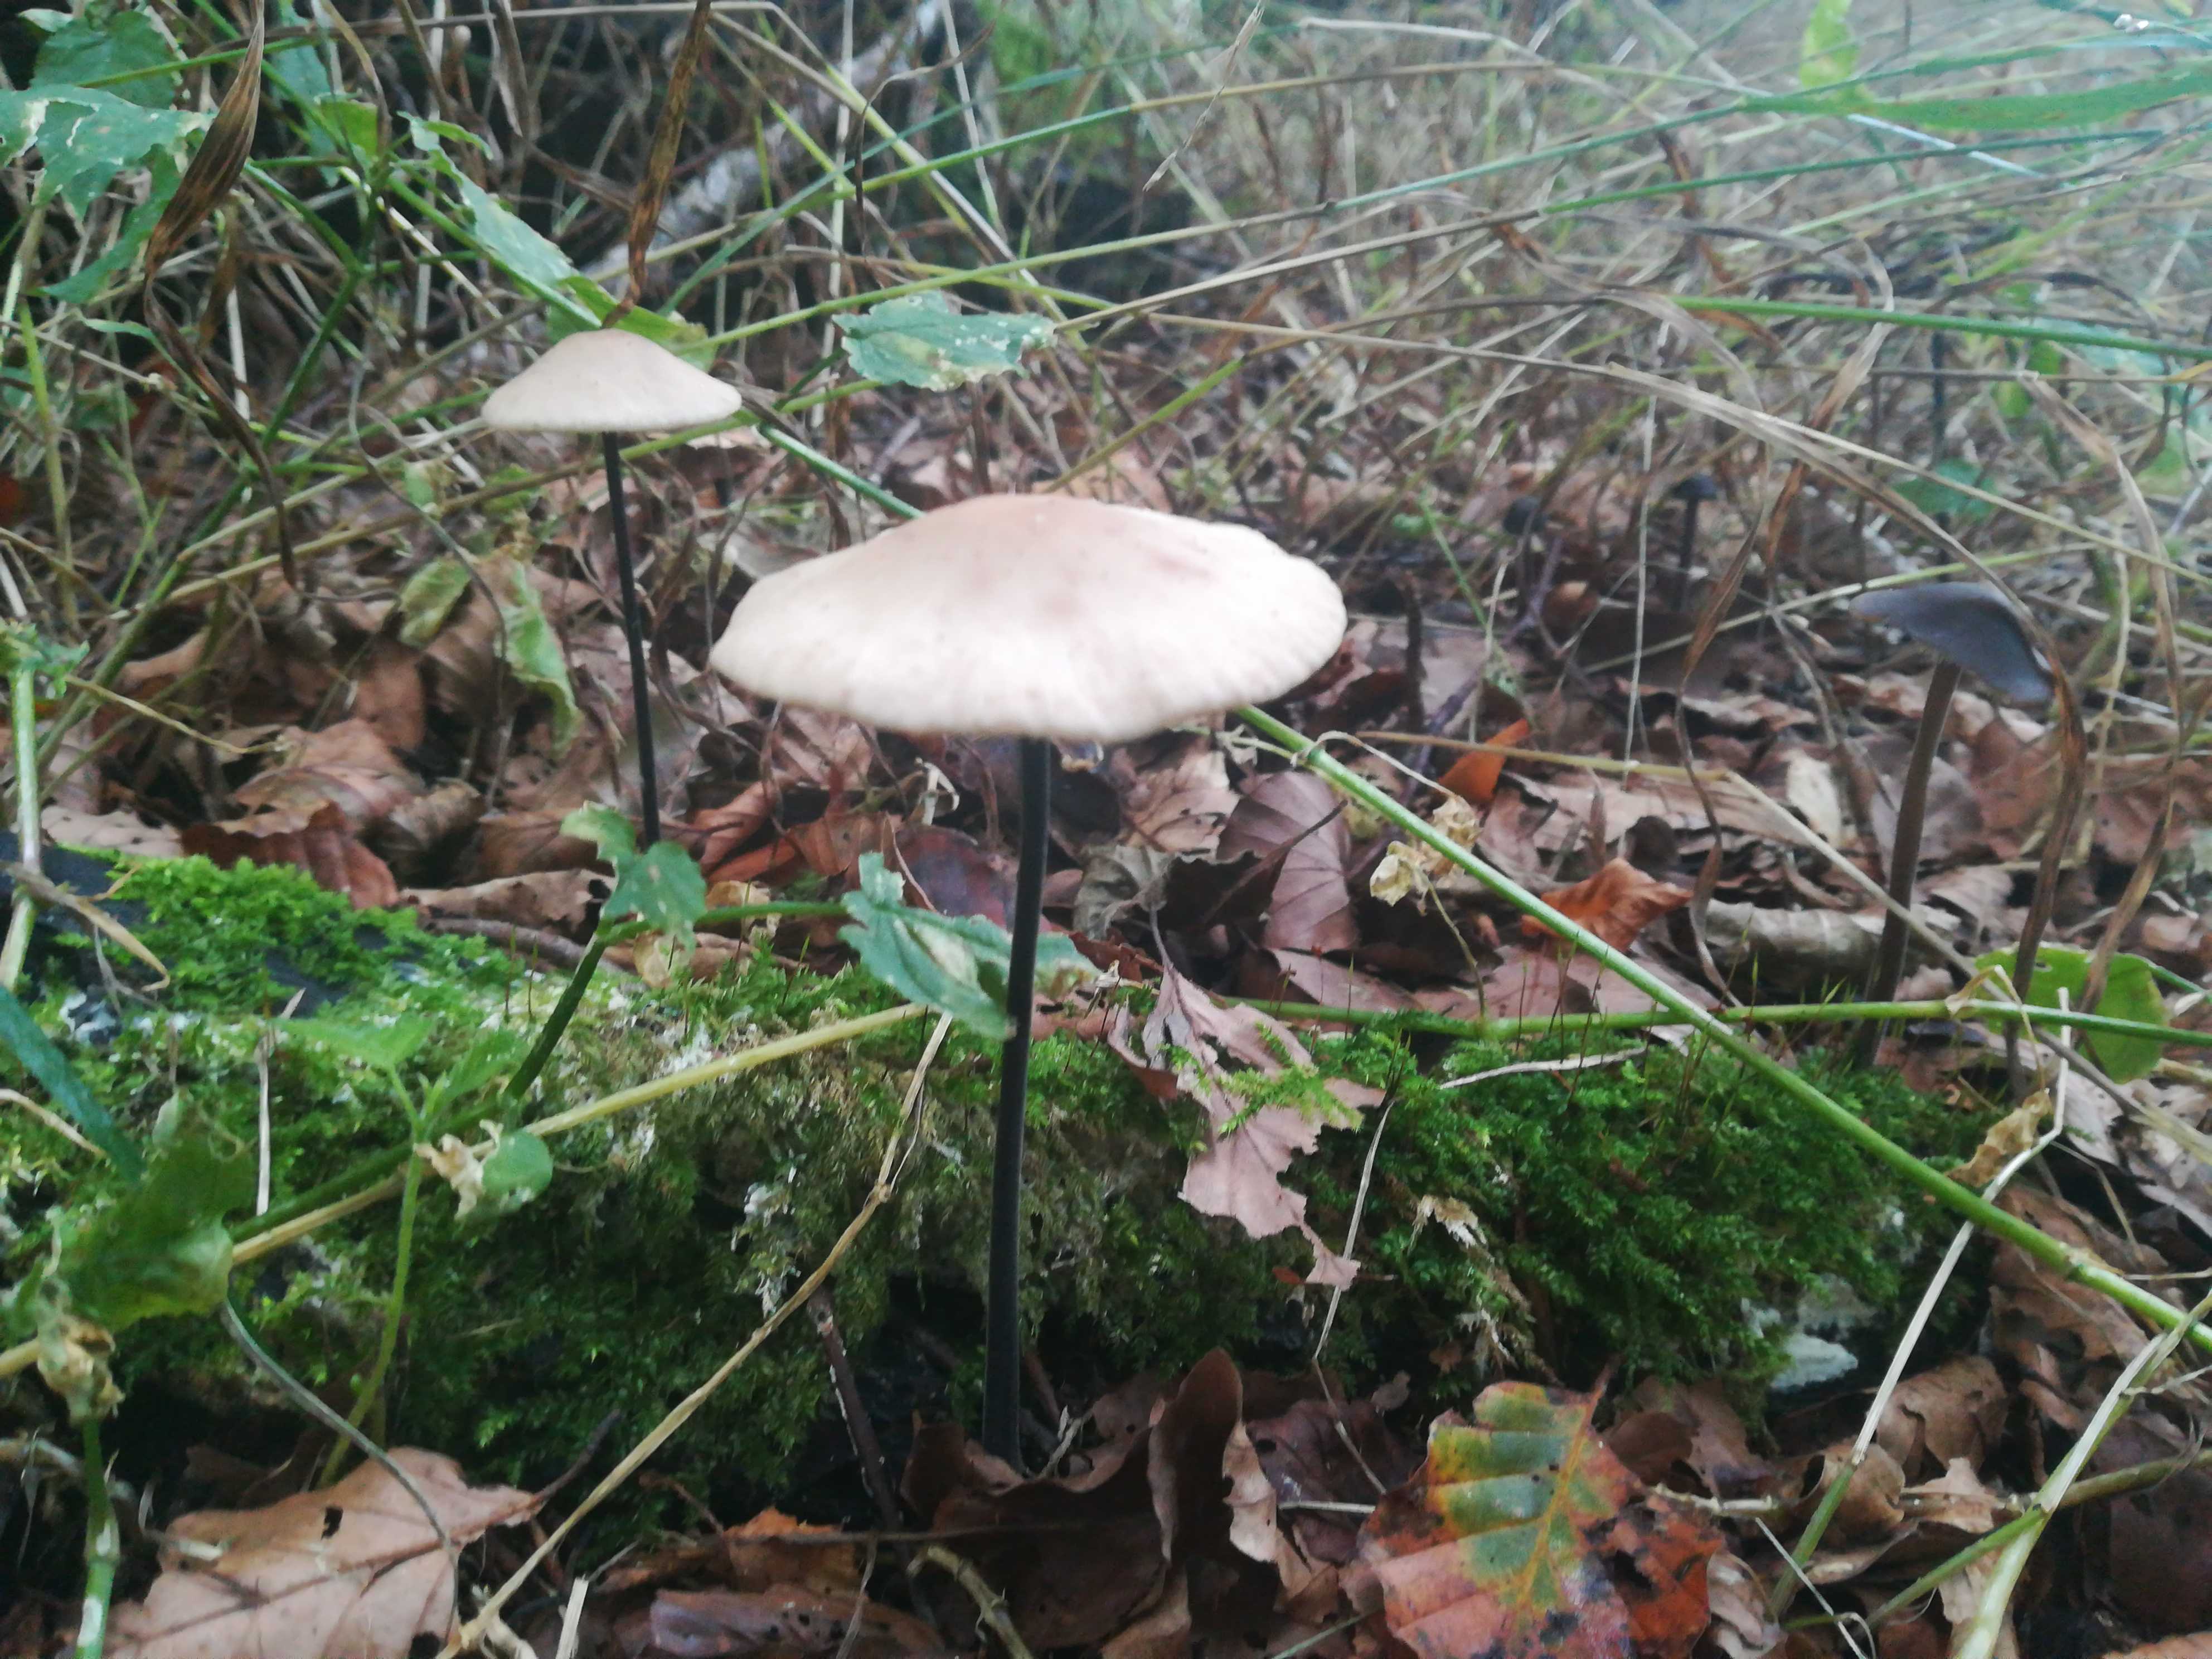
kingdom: Fungi
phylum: Basidiomycota
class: Agaricomycetes
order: Agaricales
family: Omphalotaceae
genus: Mycetinis
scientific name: Mycetinis alliaceus
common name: stor løghat
